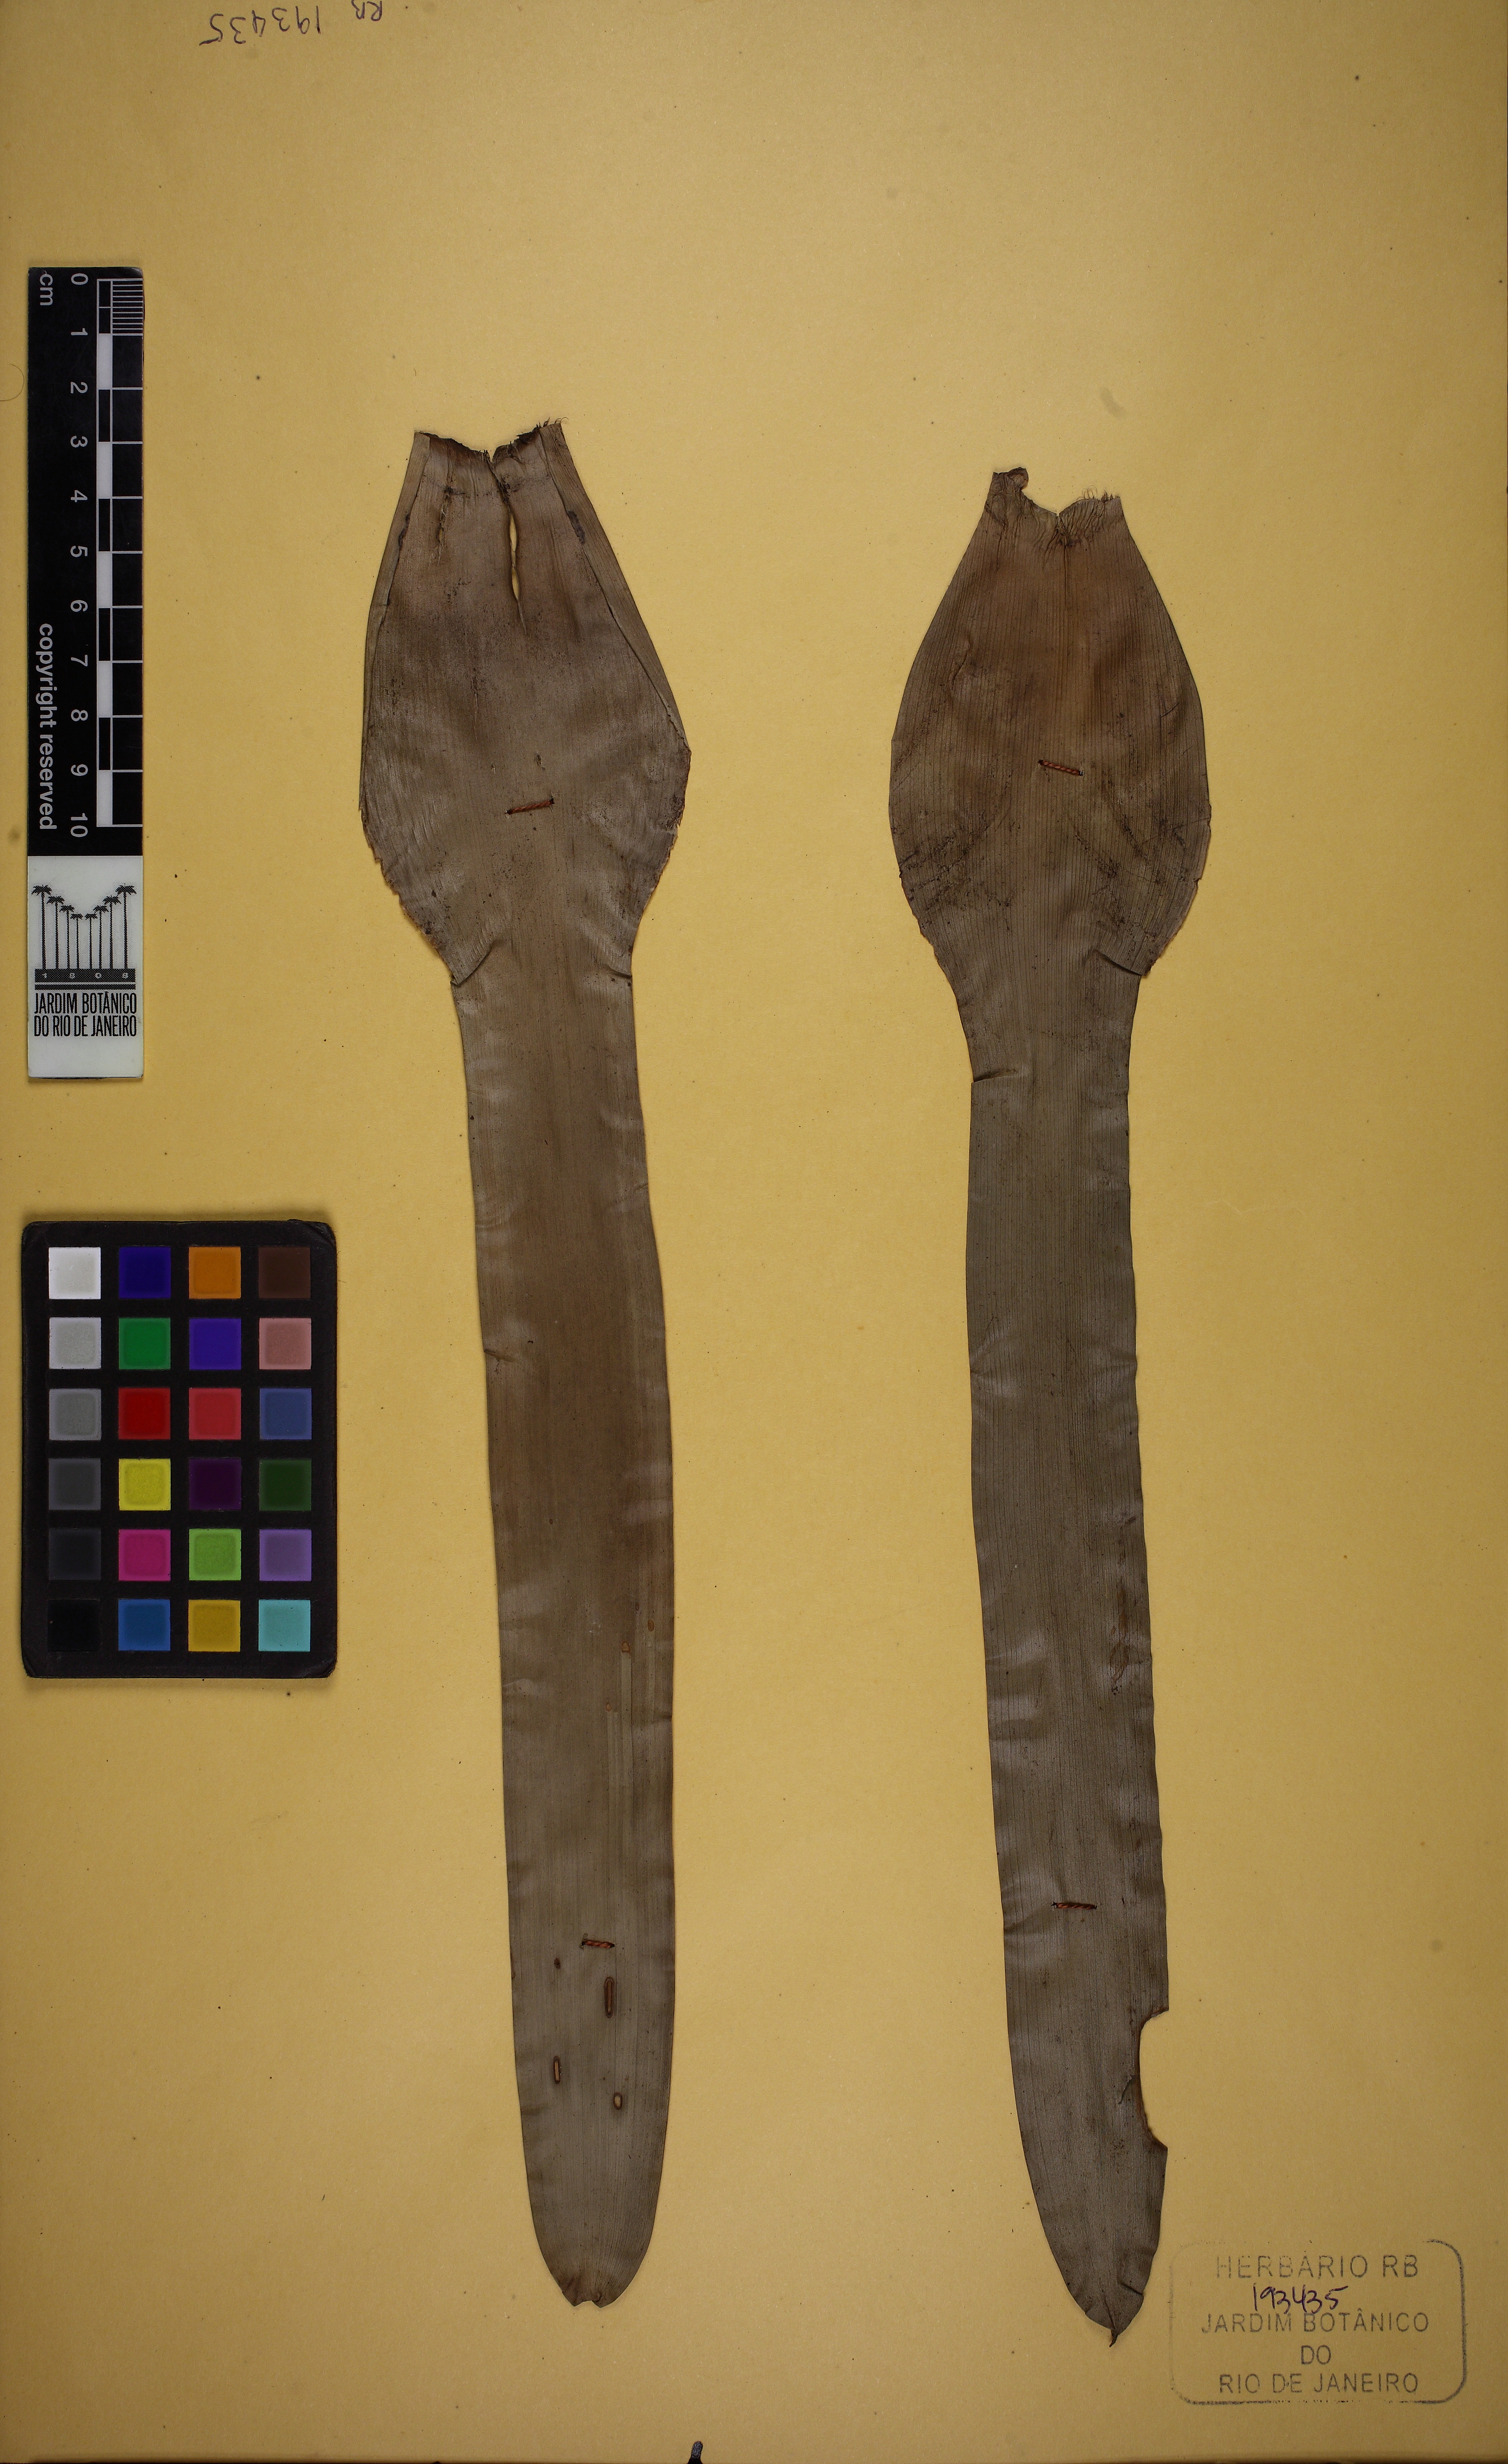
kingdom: Plantae
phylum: Tracheophyta
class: Liliopsida
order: Poales
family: Bromeliaceae
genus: Vriesea
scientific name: Vriesea ensiformis
